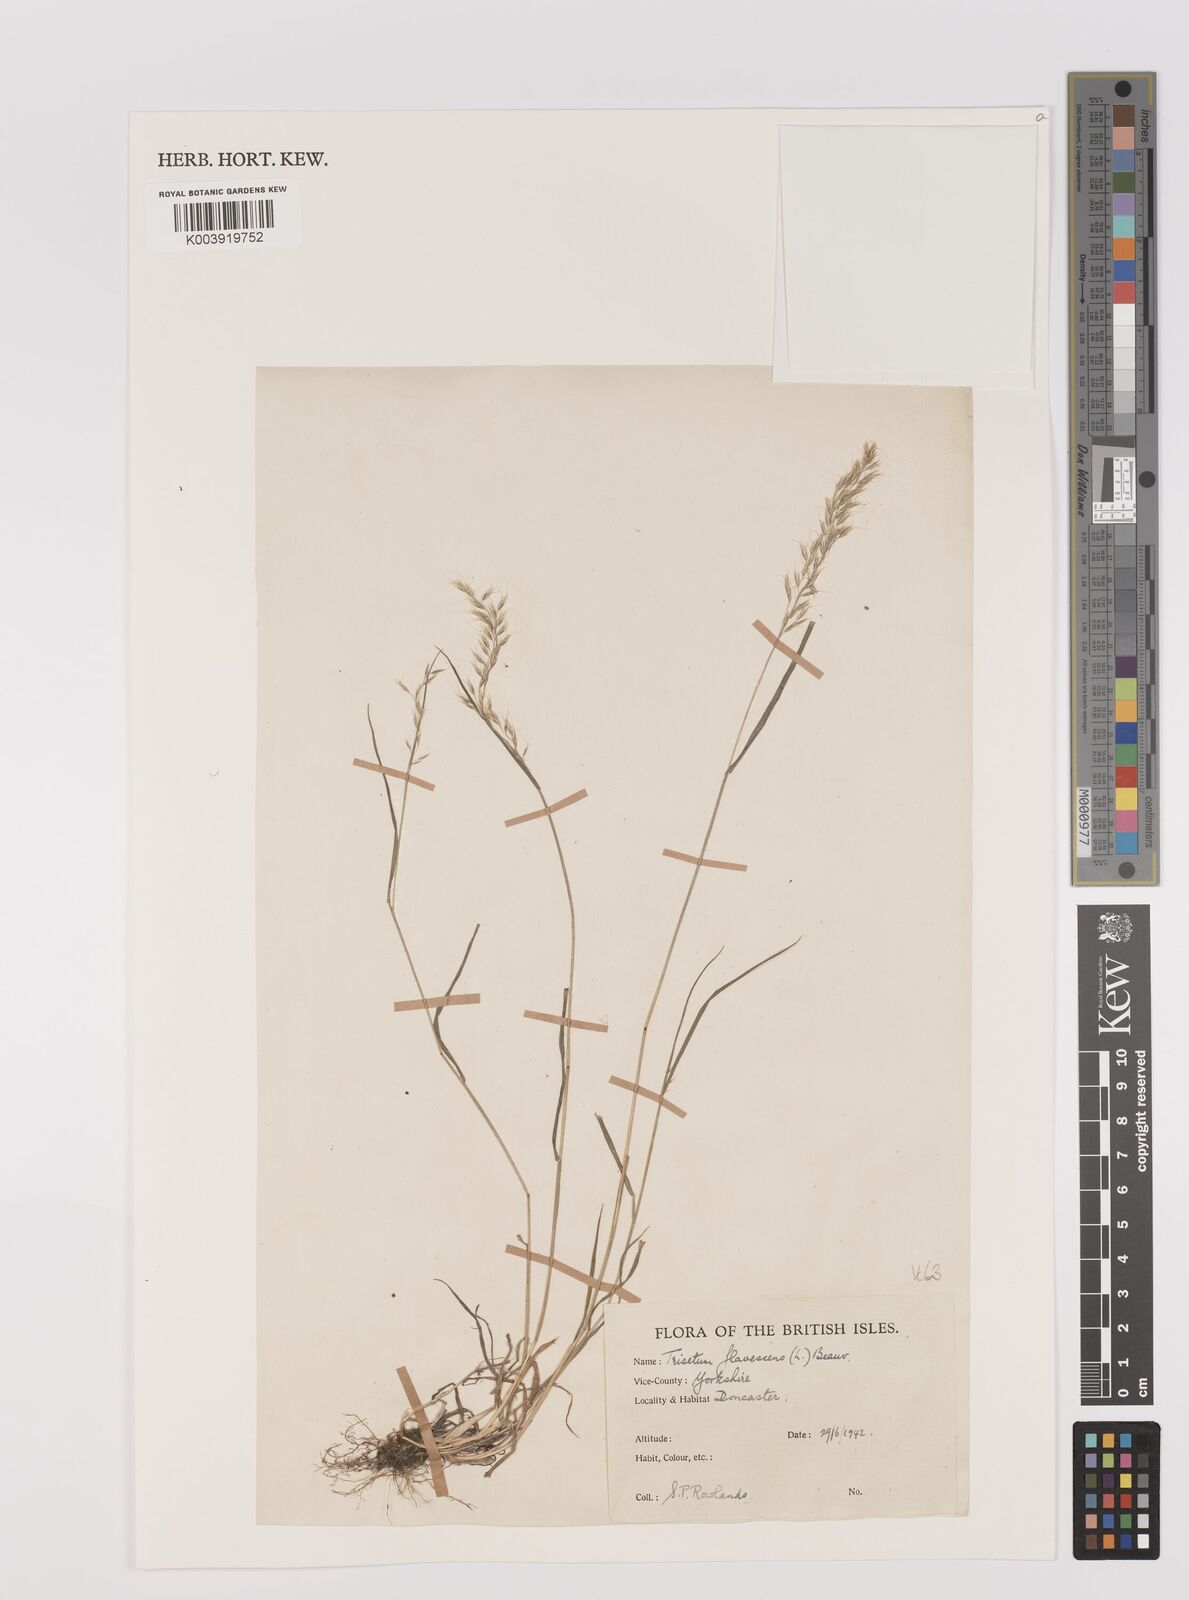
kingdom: Plantae
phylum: Tracheophyta
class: Liliopsida
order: Poales
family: Poaceae
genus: Trisetum
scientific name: Trisetum flavescens
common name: Yellow oat-grass
